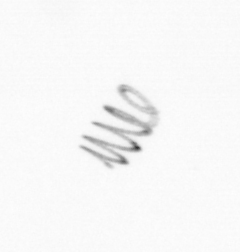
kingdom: Chromista
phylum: Ochrophyta
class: Bacillariophyceae
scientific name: Bacillariophyceae
